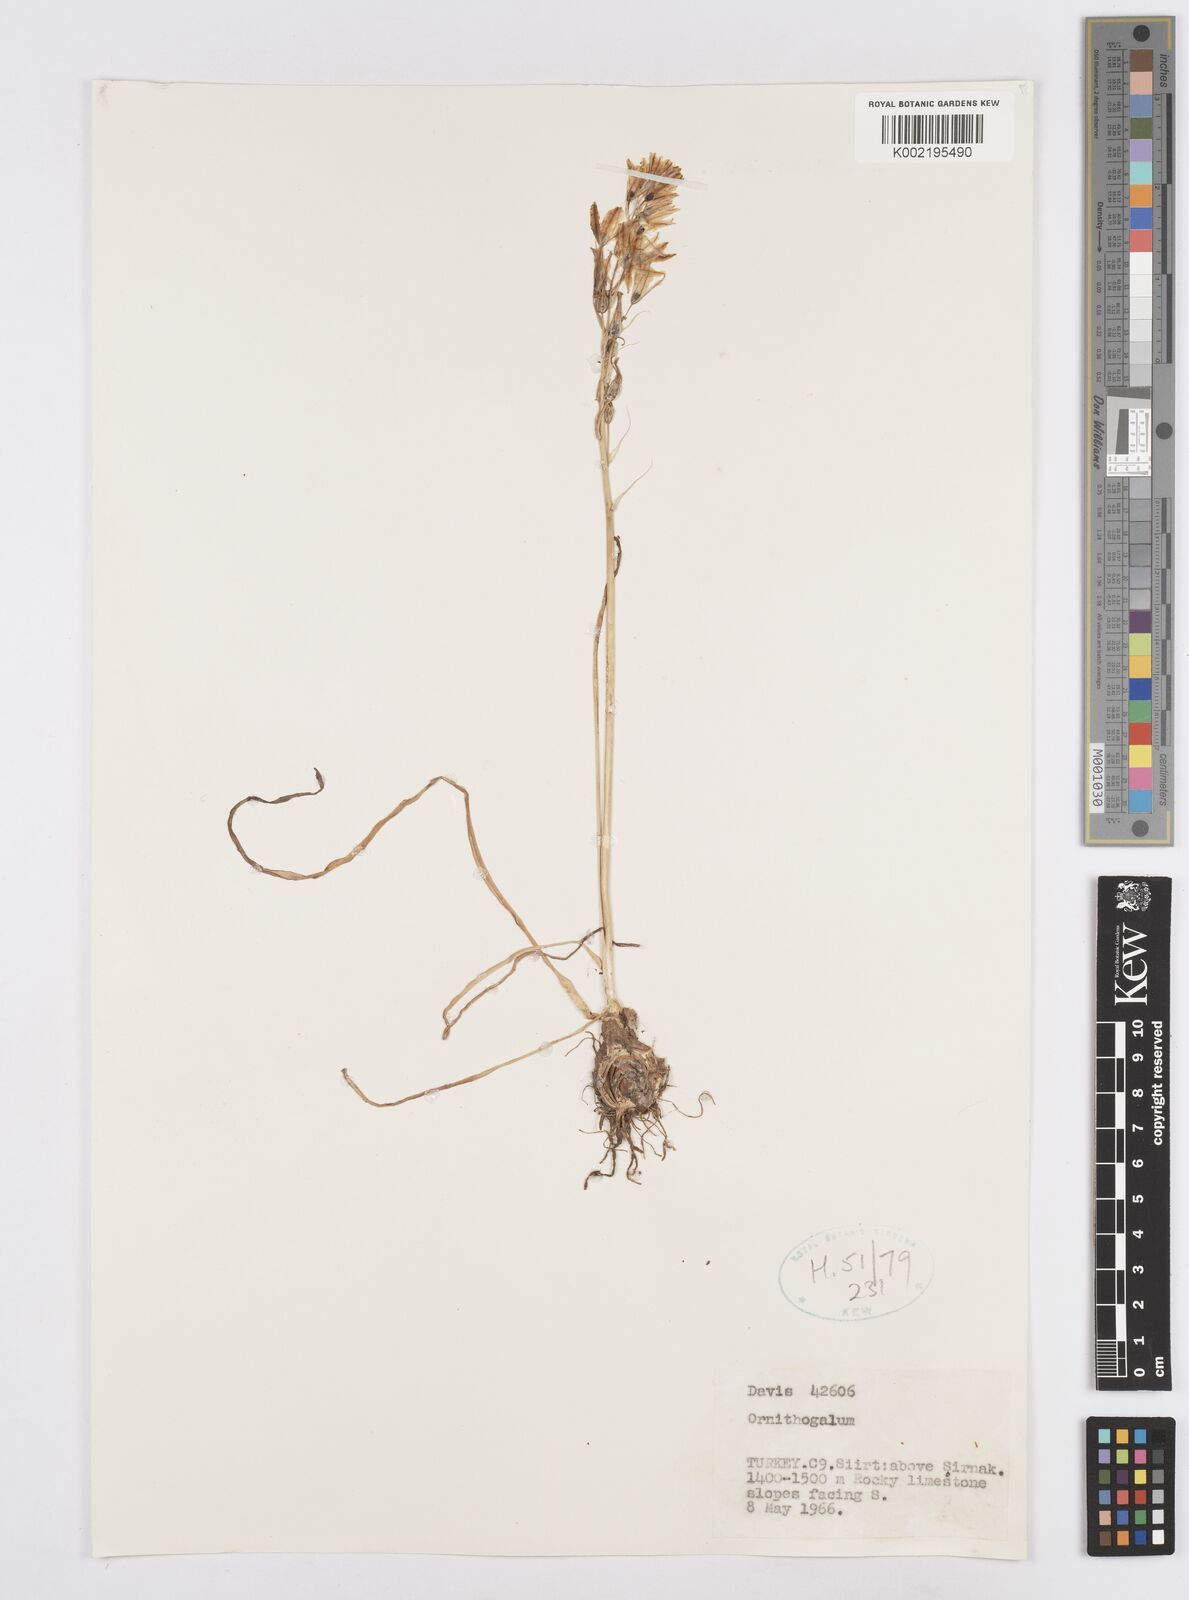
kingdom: Plantae
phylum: Tracheophyta
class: Liliopsida
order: Asparagales
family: Asparagaceae
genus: Ornithogalum
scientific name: Ornithogalum
